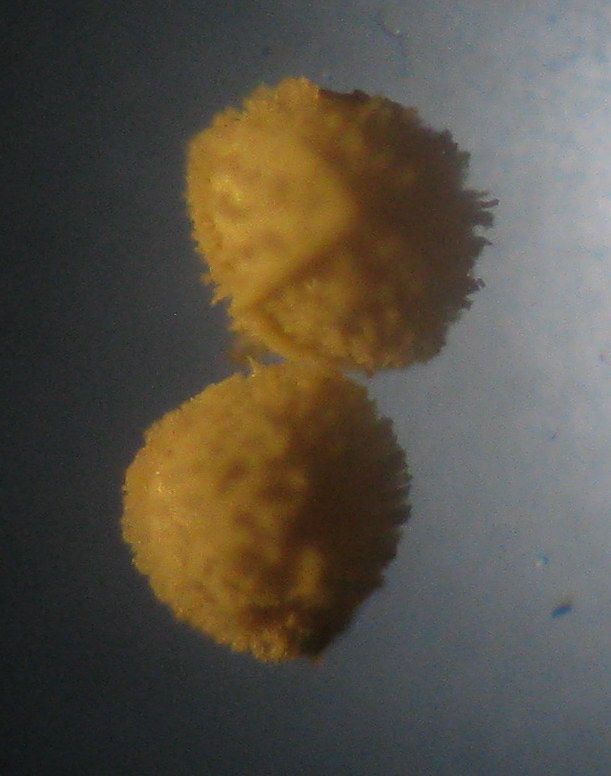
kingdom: Plantae
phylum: Tracheophyta
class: Lycopodiopsida
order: Isoetales
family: Isoetaceae
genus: Isoetes
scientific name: Isoetes echinospora
